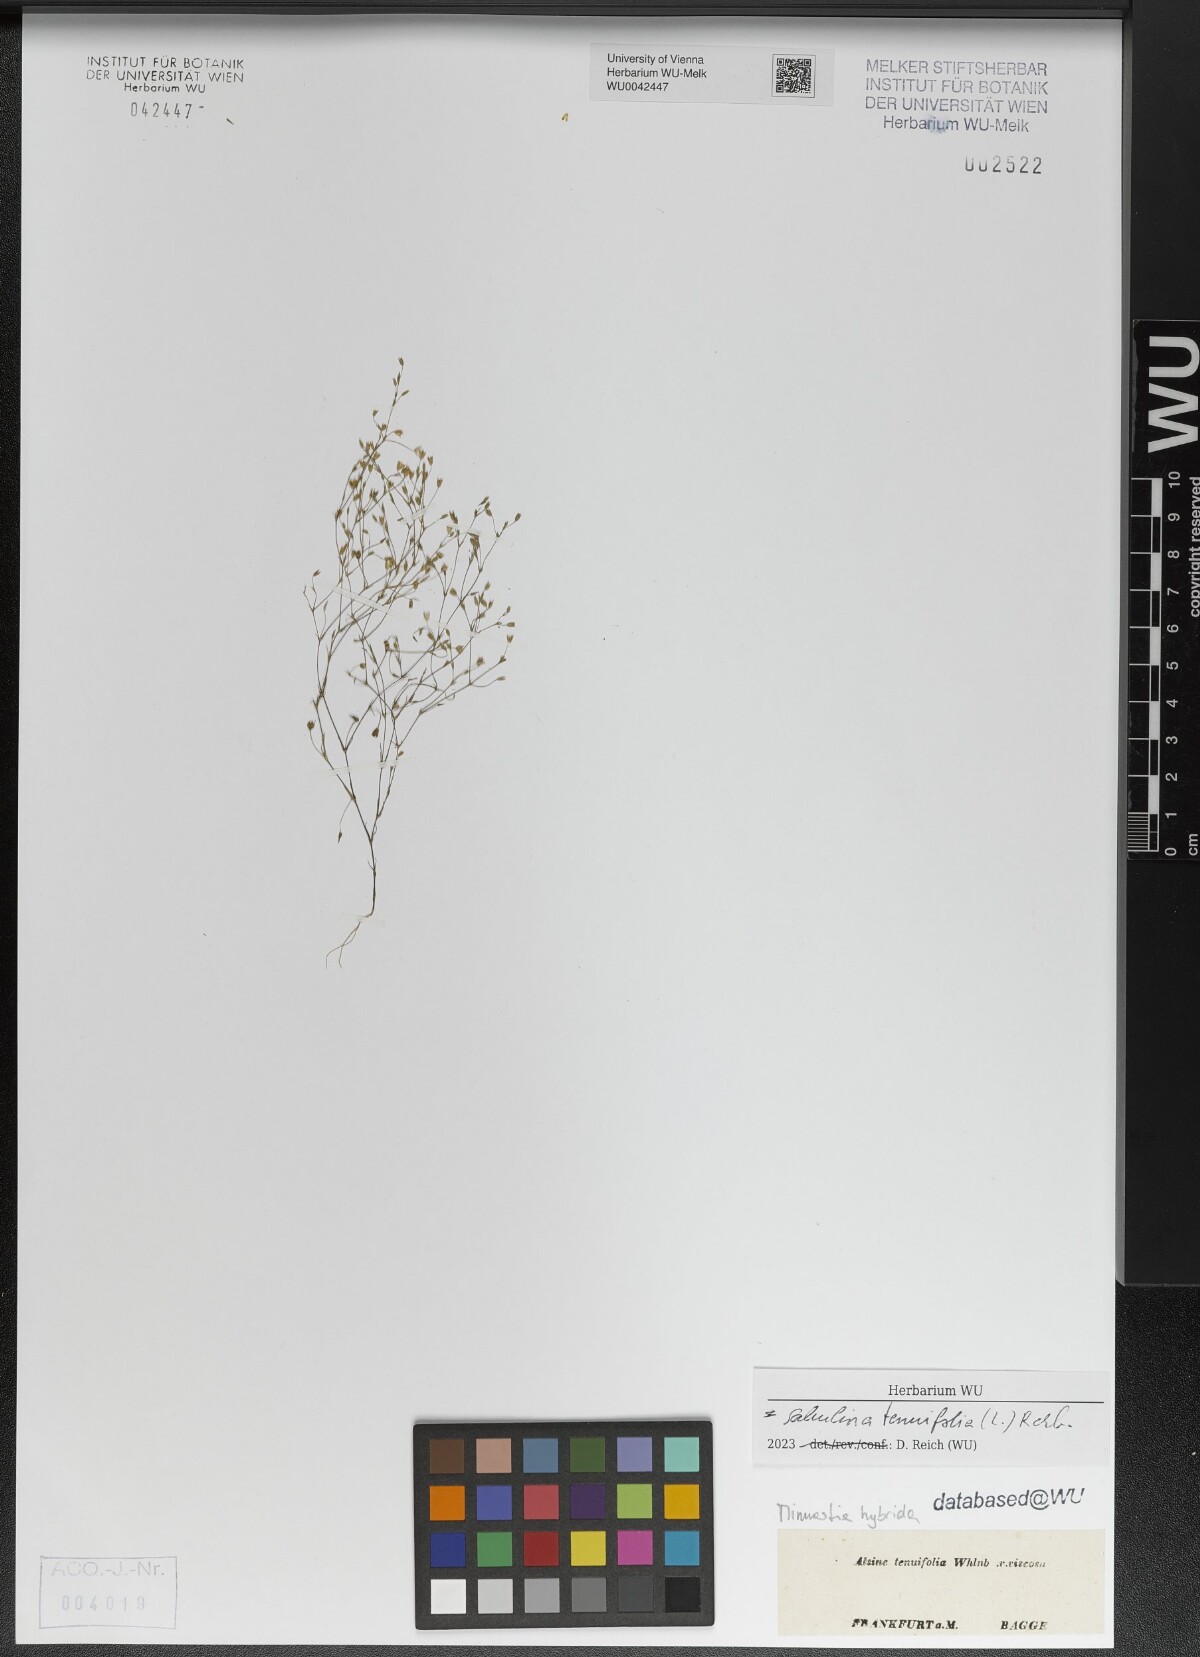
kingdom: Plantae
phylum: Tracheophyta
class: Magnoliopsida
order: Caryophyllales
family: Caryophyllaceae
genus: Sabulina
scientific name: Sabulina tenuifolia
